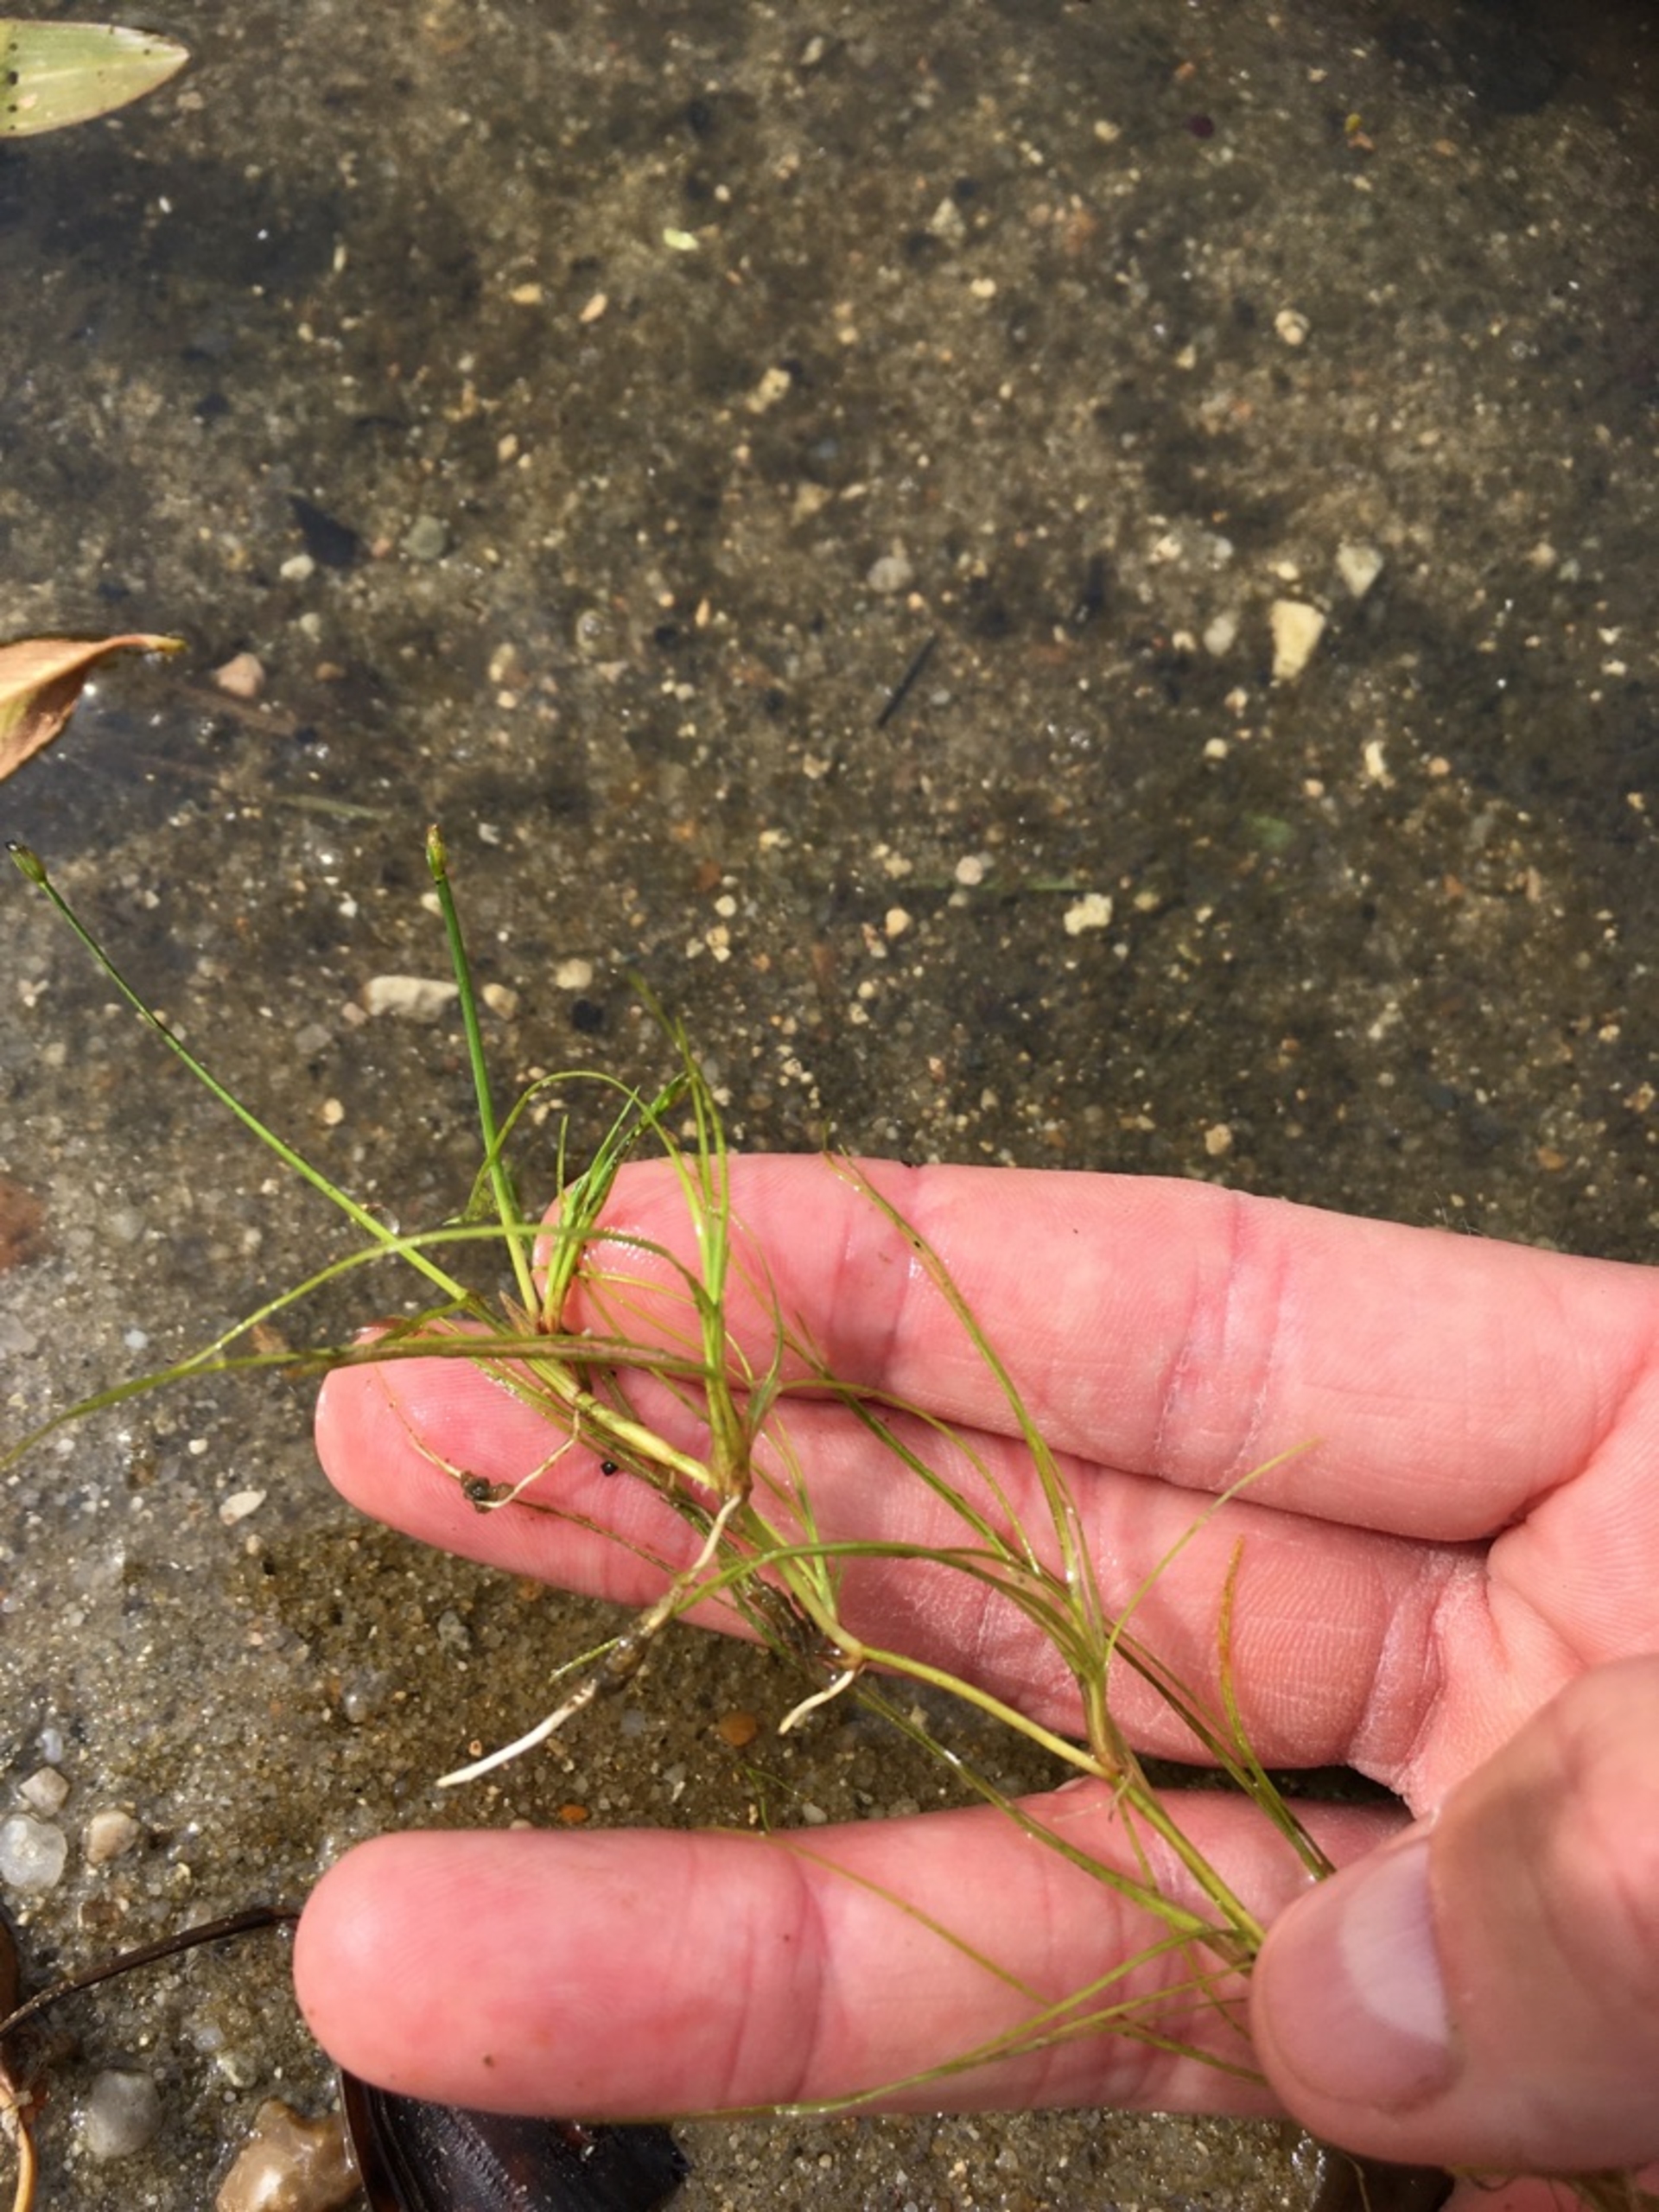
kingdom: Plantae
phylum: Tracheophyta
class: Liliopsida
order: Poales
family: Cyperaceae
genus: Isolepis
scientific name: Isolepis fluitans
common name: Flydende kogleaks
